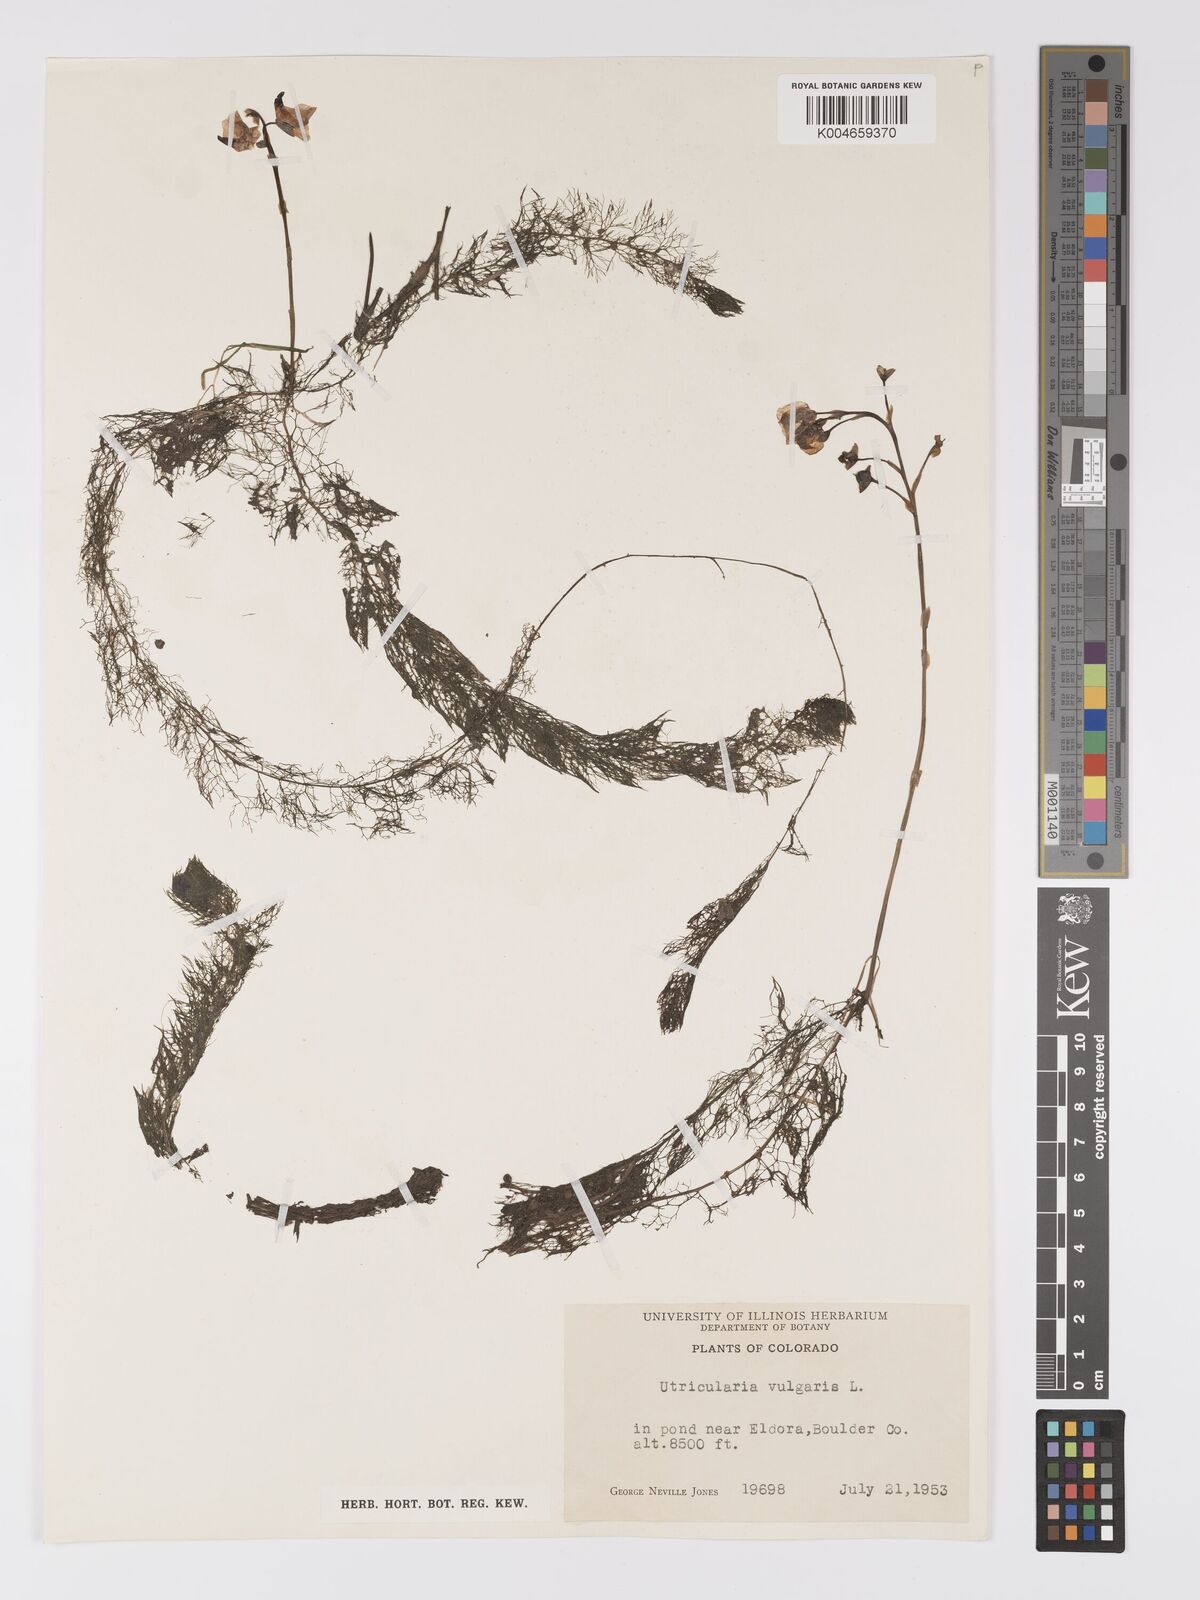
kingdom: Plantae
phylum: Tracheophyta
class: Magnoliopsida
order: Lamiales
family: Lentibulariaceae
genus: Utricularia
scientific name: Utricularia macrorhiza
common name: Common bladderwort
